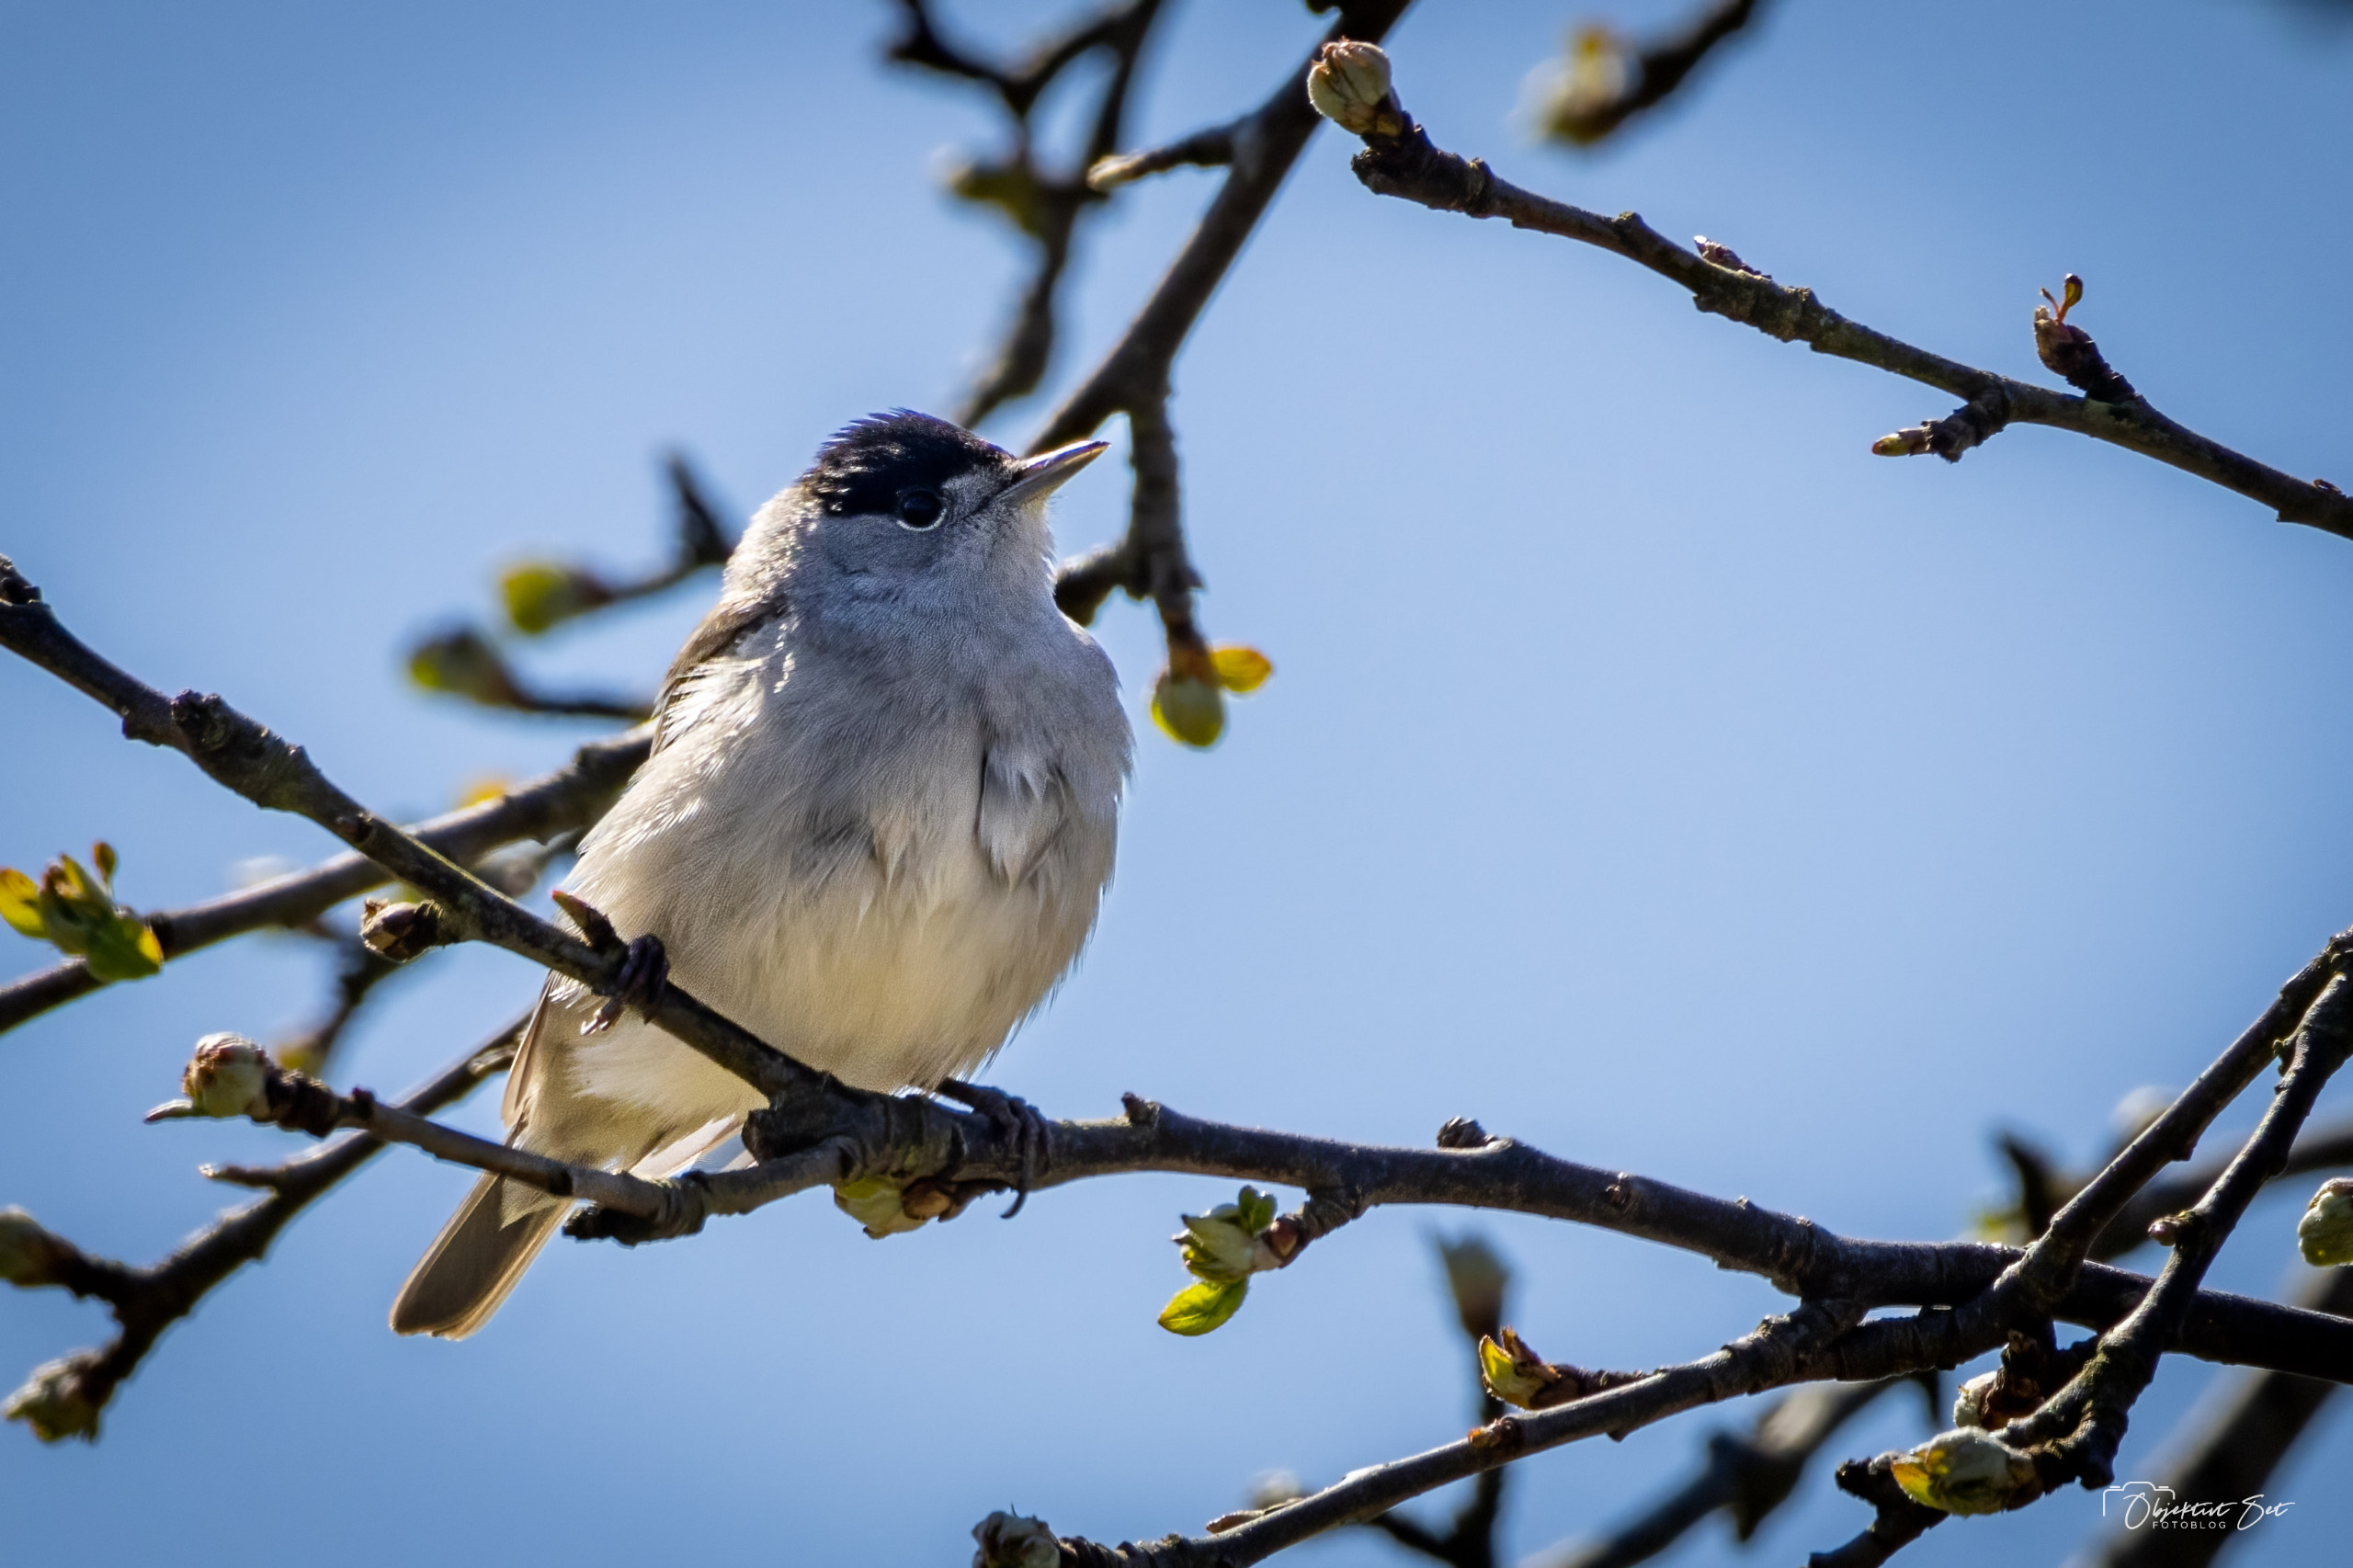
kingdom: Animalia
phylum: Chordata
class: Aves
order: Passeriformes
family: Sylviidae
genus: Sylvia
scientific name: Sylvia atricapilla
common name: Munk
